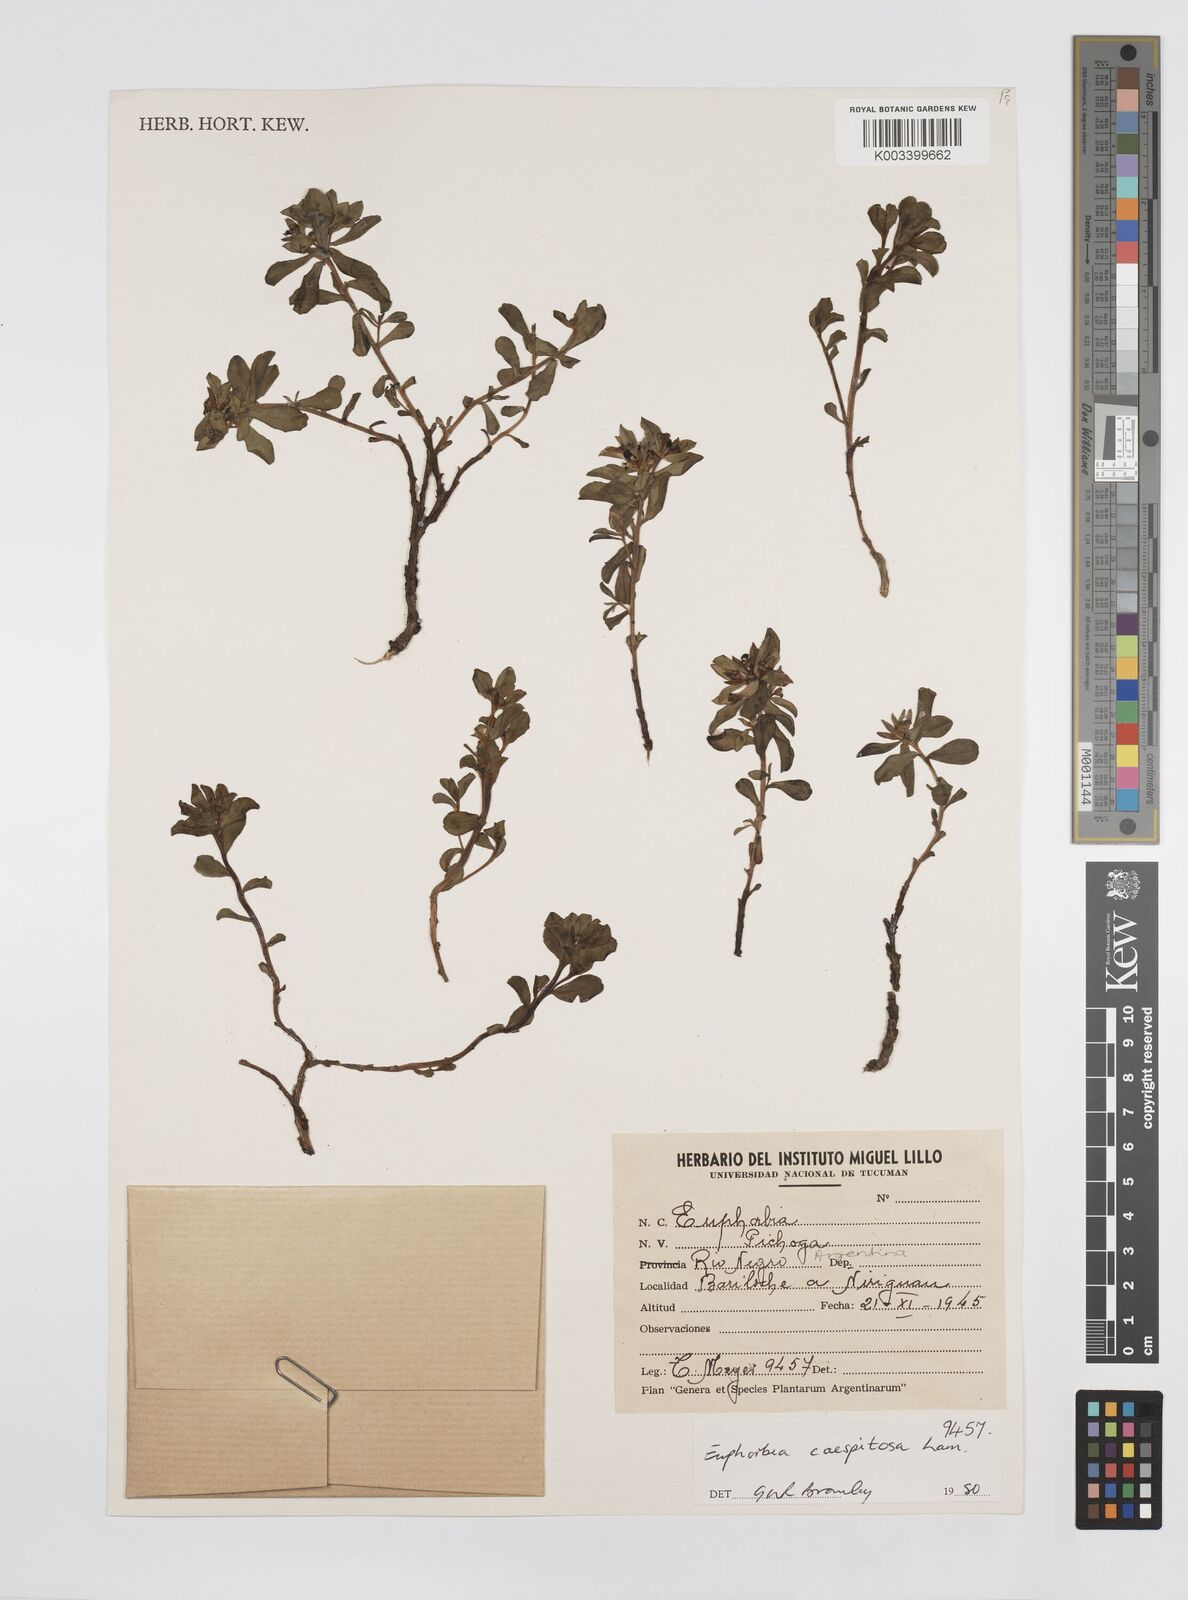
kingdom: Plantae
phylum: Tracheophyta
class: Magnoliopsida
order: Malpighiales
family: Euphorbiaceae
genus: Euphorbia
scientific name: Euphorbia segetalis
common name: Corn spurge
